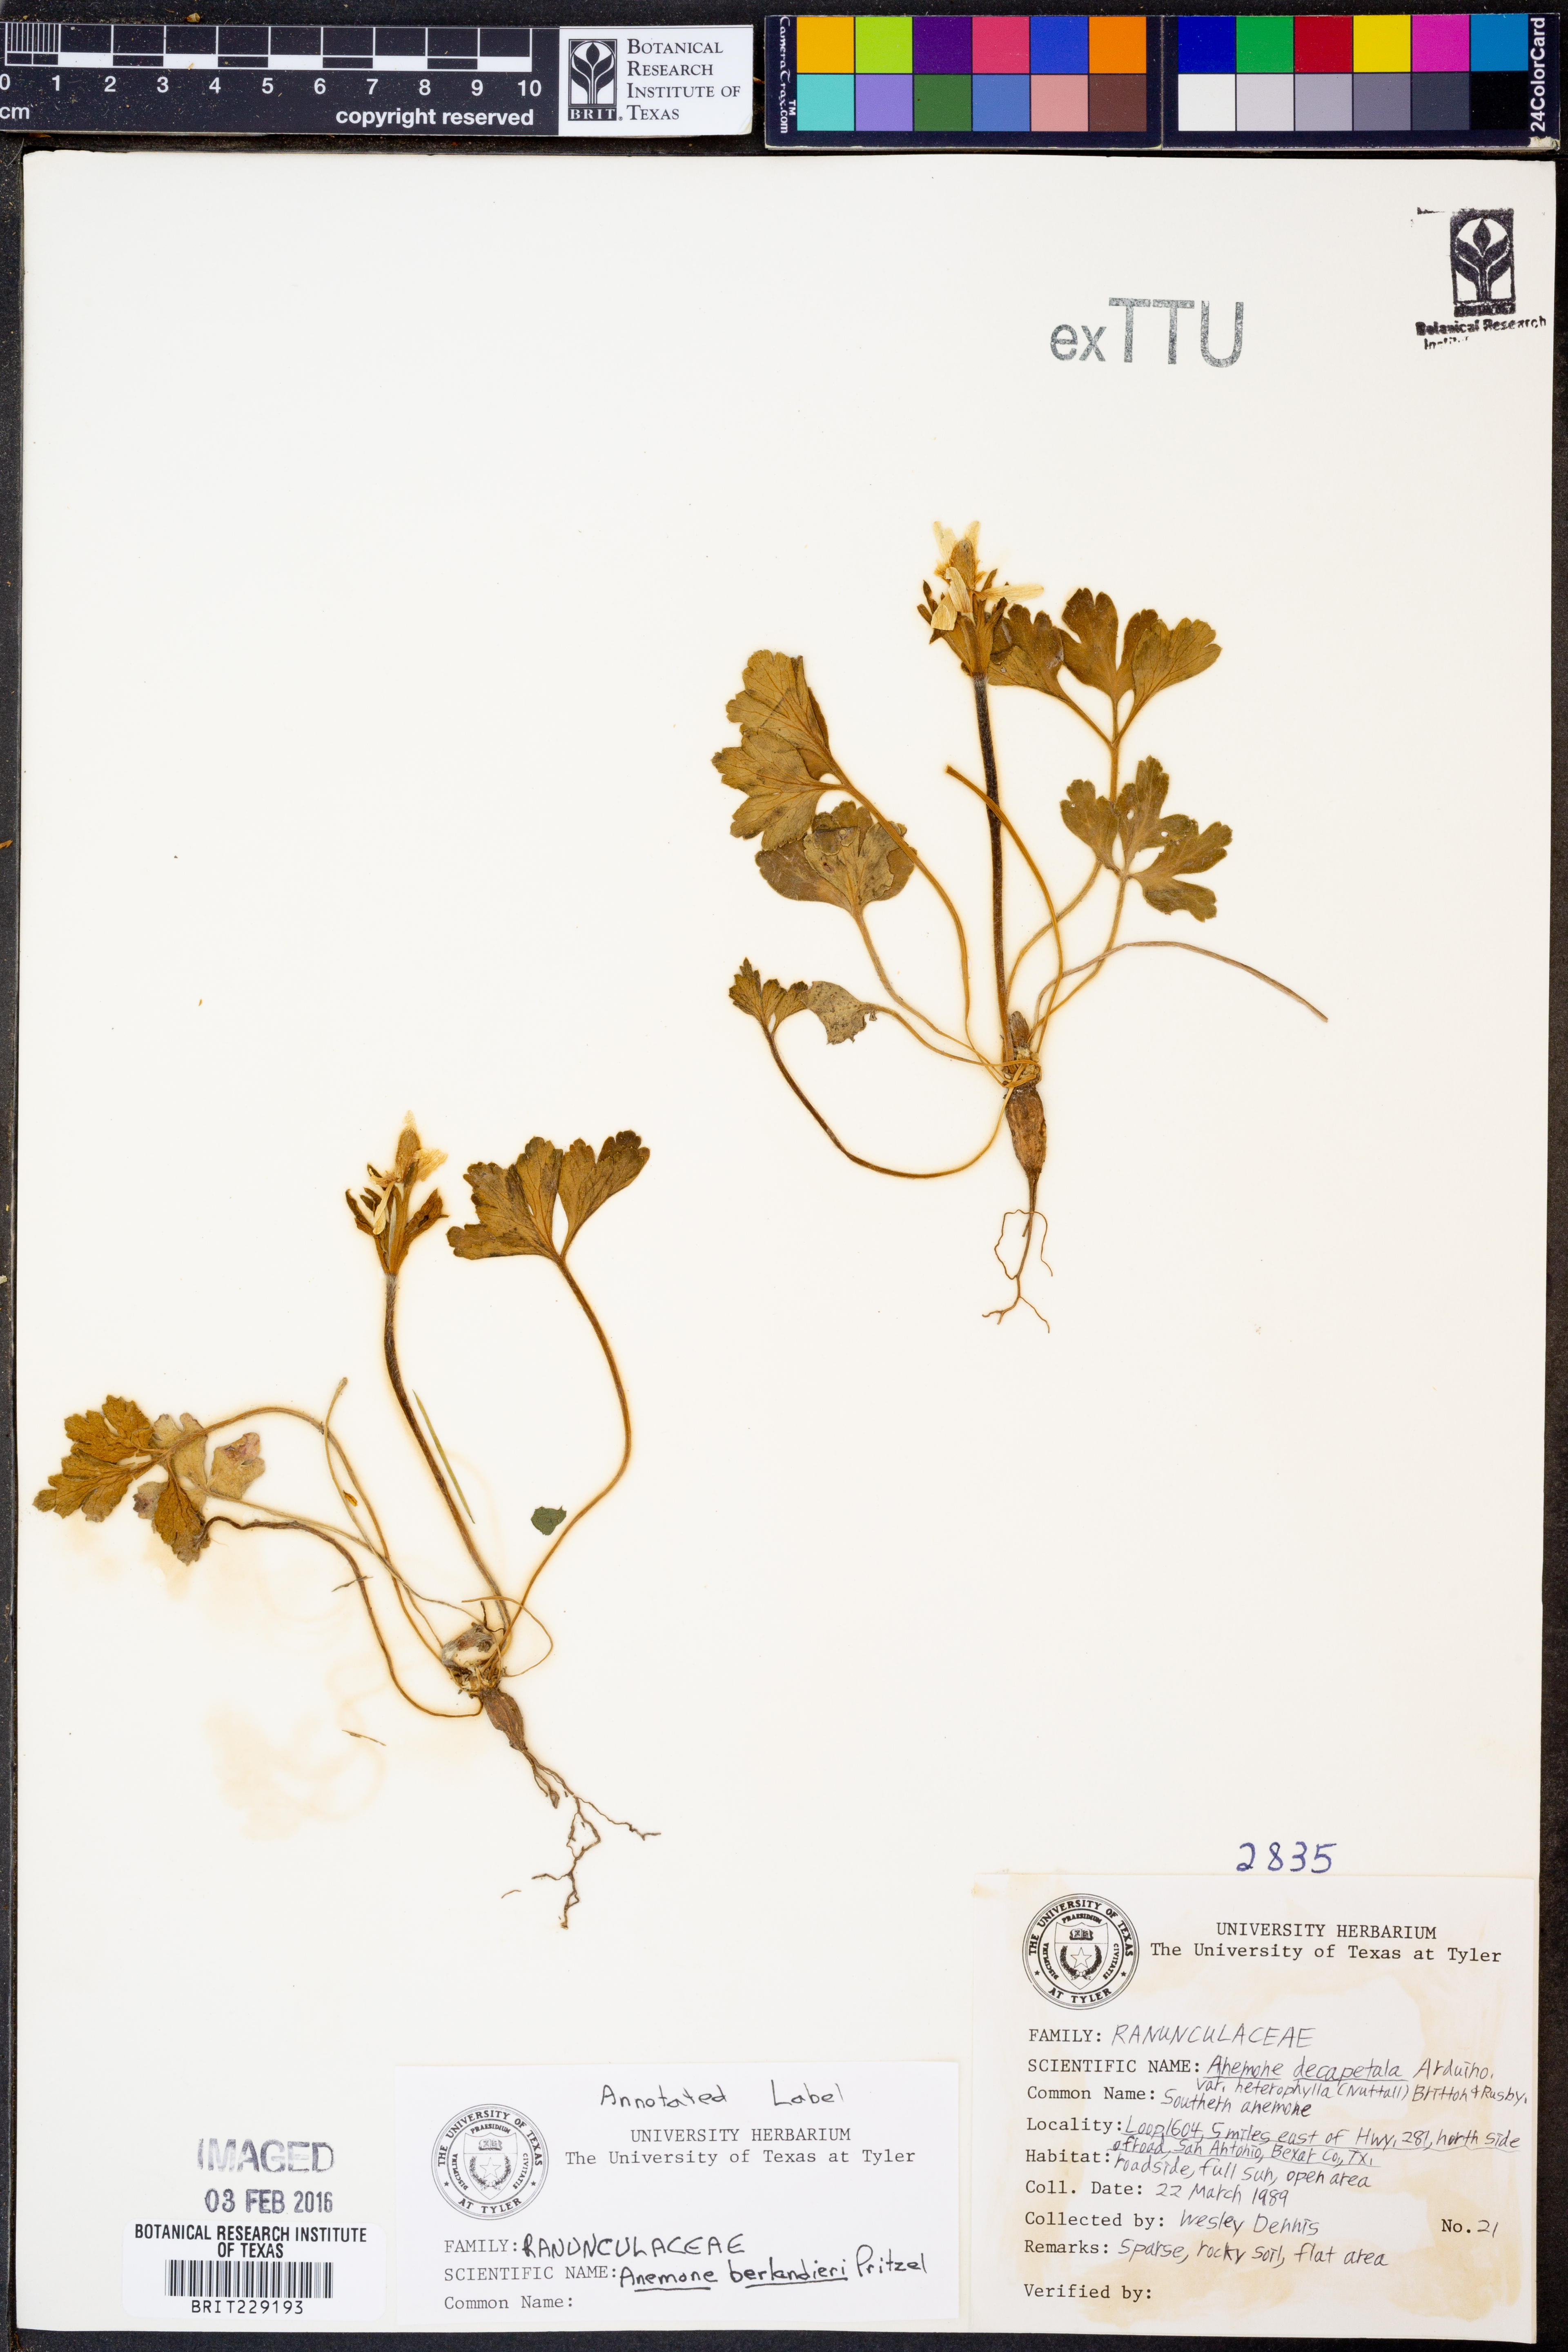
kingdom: Plantae
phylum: Tracheophyta
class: Magnoliopsida
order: Ranunculales
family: Ranunculaceae
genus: Anemone
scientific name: Anemone berlandieri
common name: Ten-petal anemone
